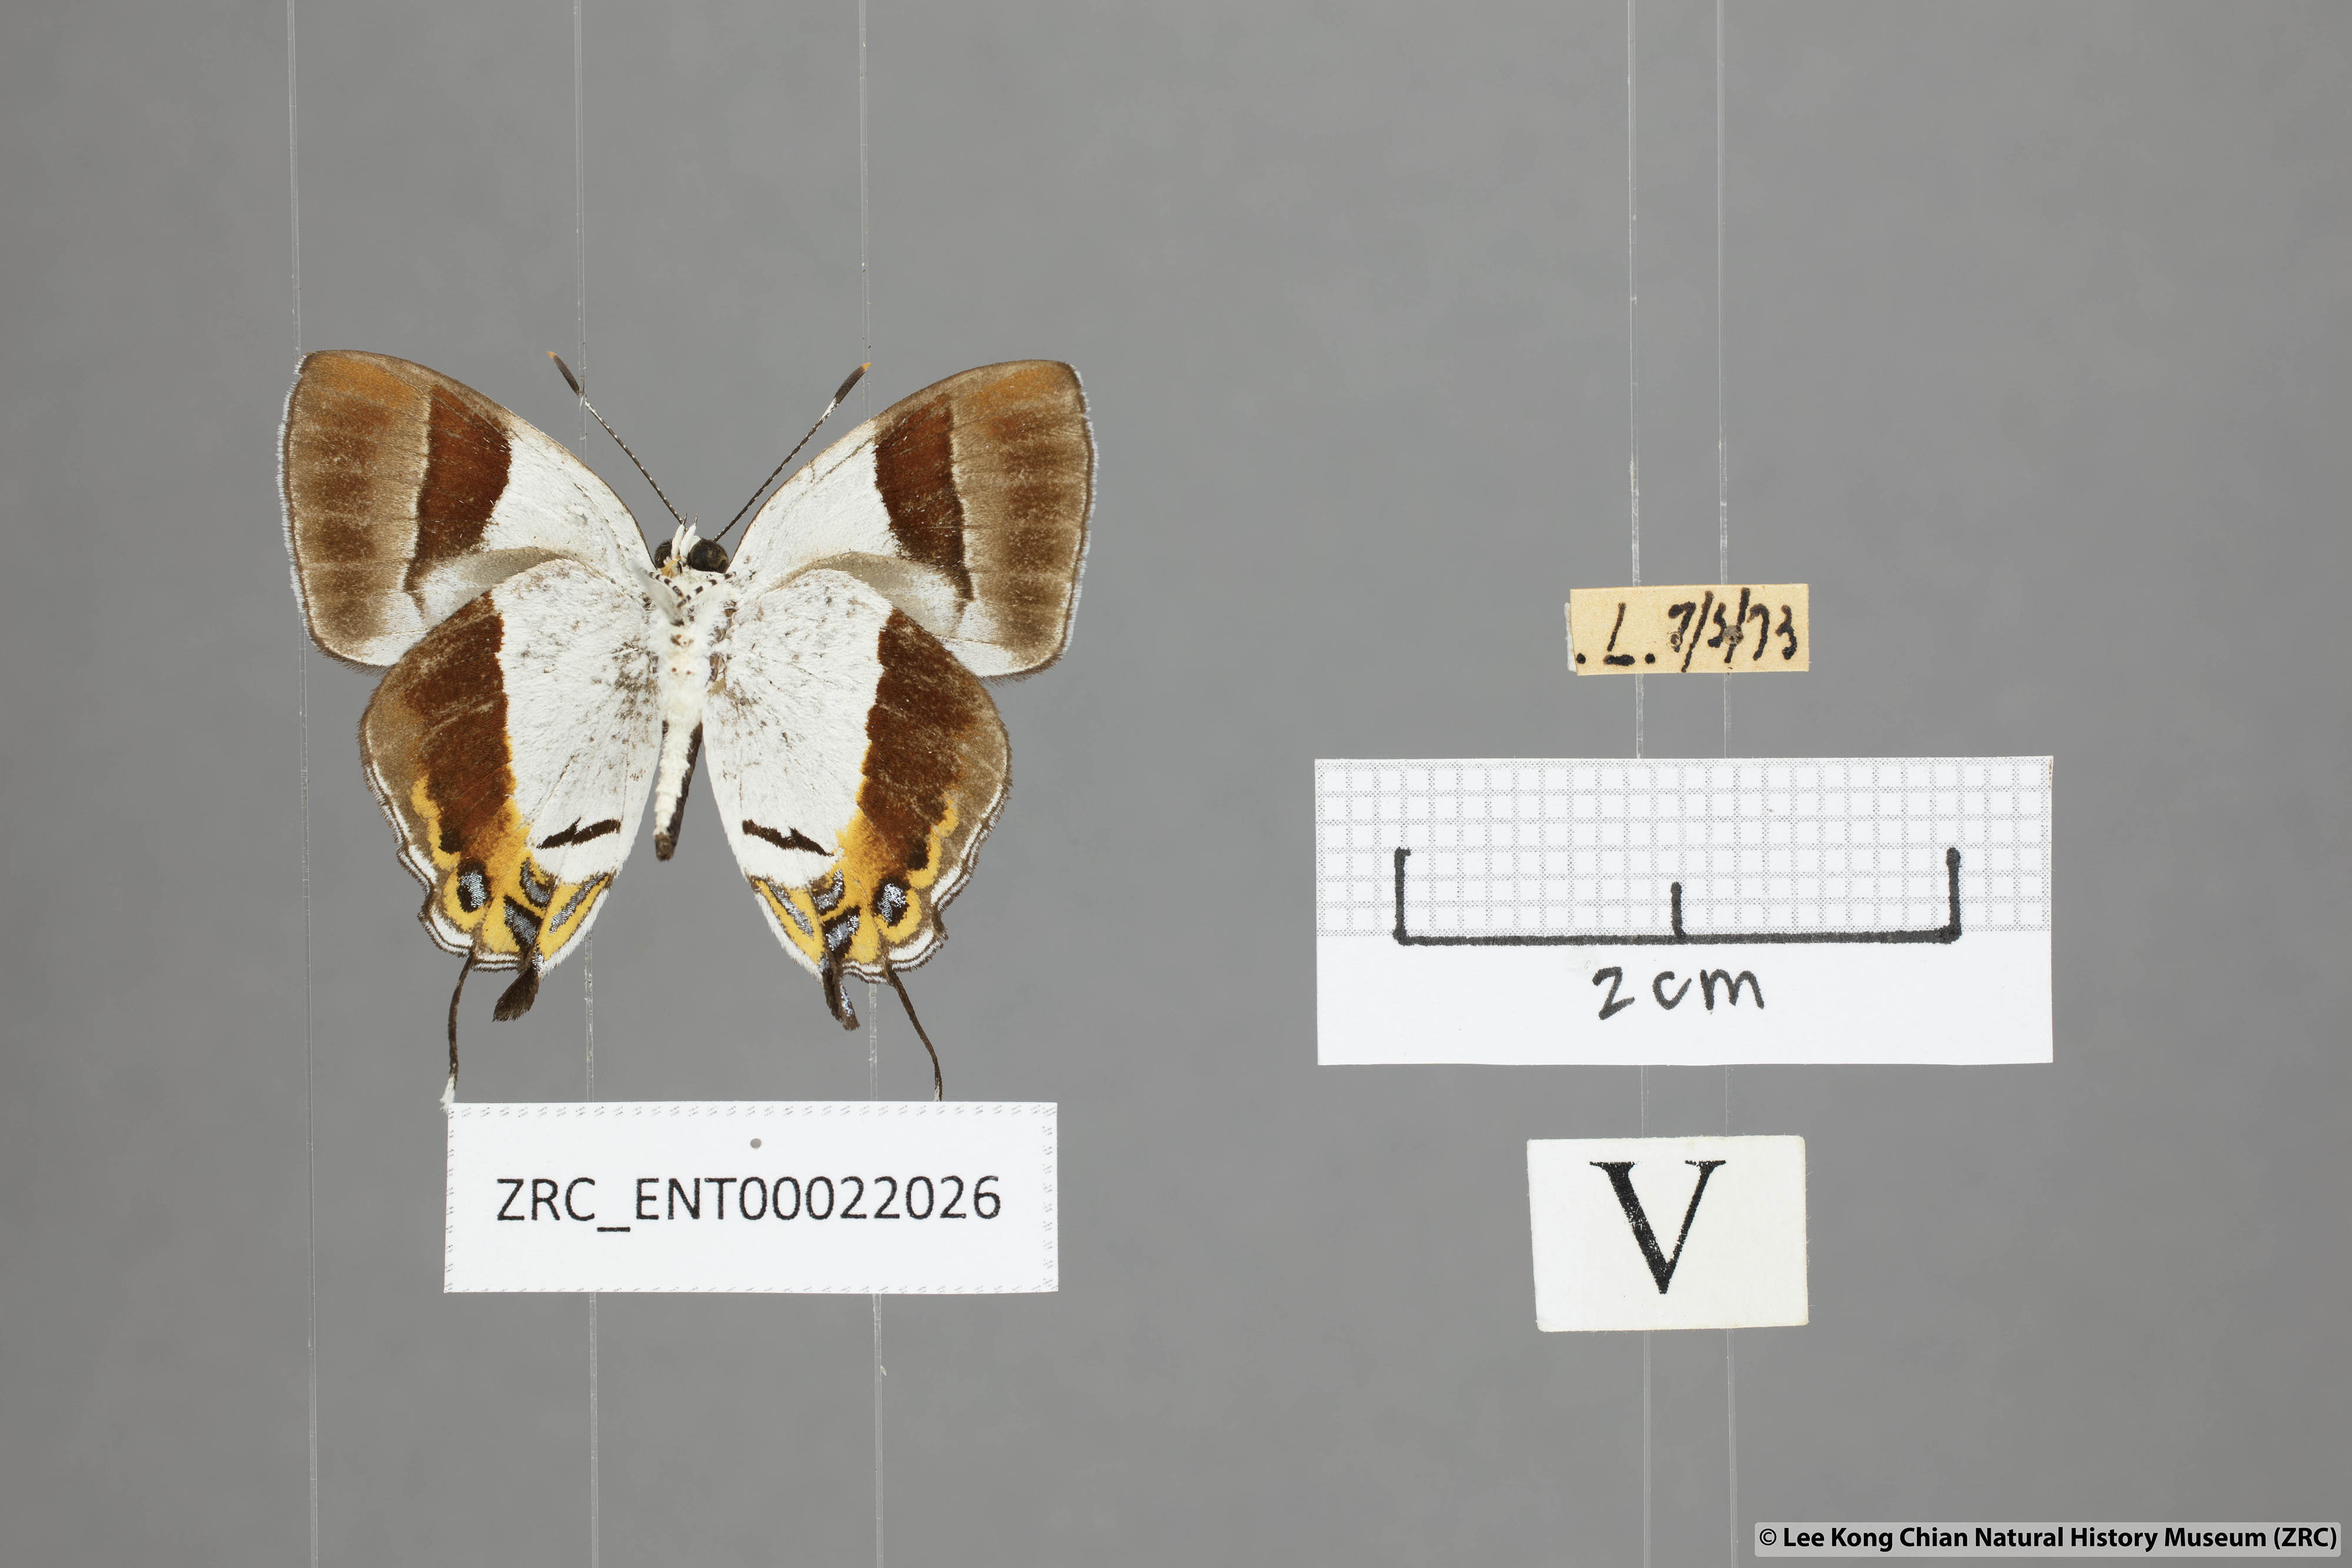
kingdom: Animalia
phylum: Arthropoda
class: Insecta
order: Lepidoptera
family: Lycaenidae
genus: Sithon
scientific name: Sithon nedymond
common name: Plush
